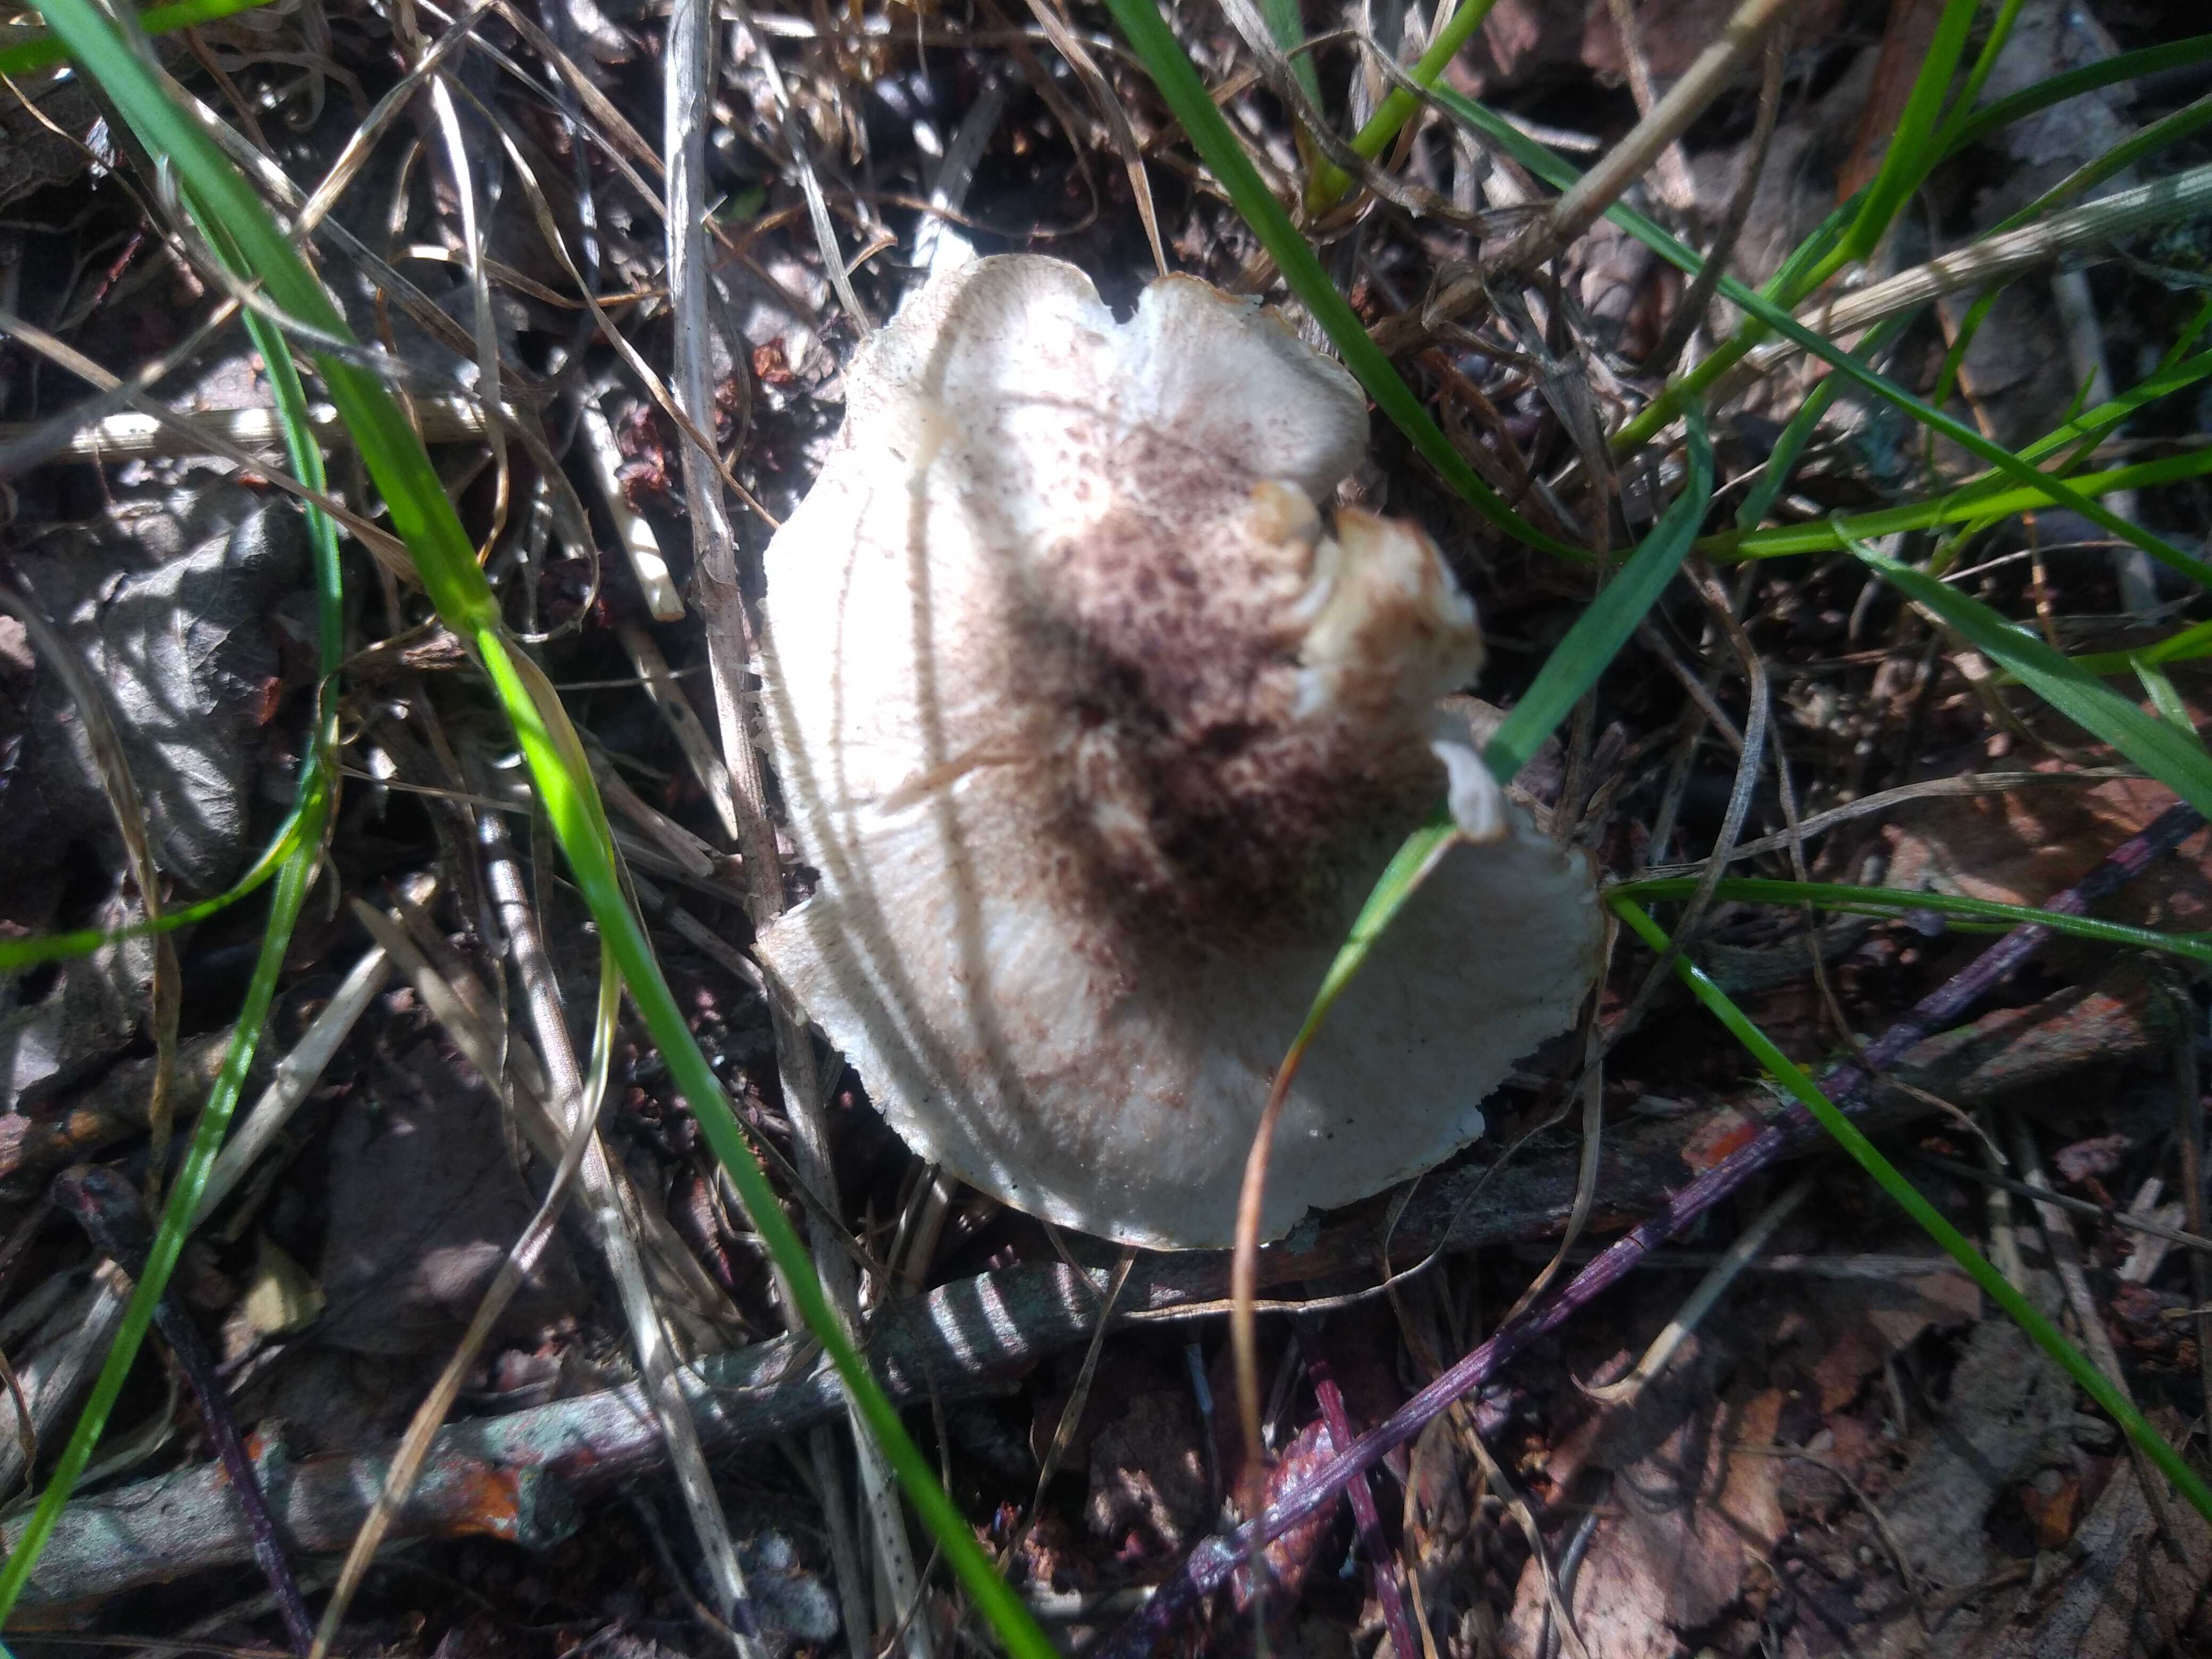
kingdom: Fungi
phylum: Basidiomycota
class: Agaricomycetes
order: Agaricales
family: Tricholomataceae
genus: Tricholoma
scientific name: Tricholoma
